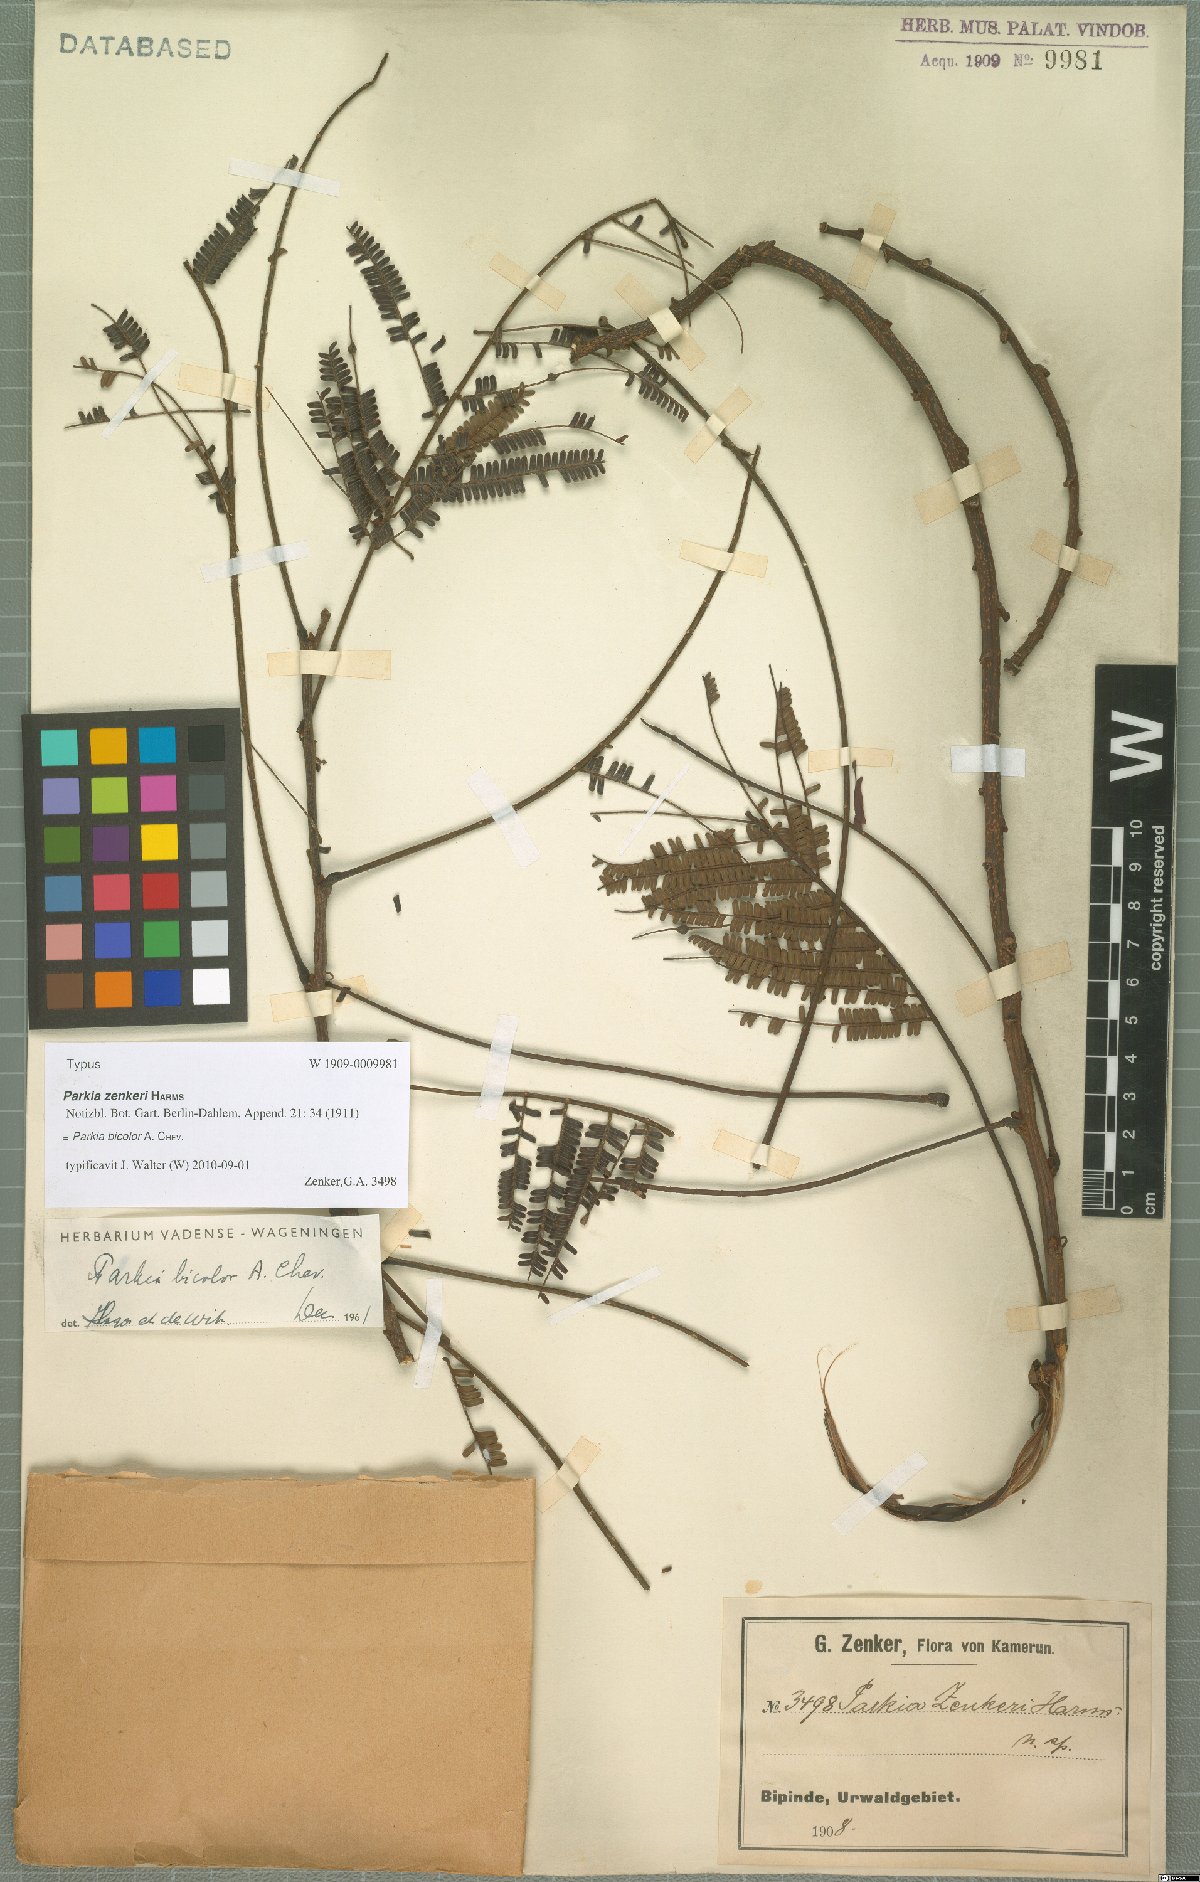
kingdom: Plantae
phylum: Tracheophyta
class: Magnoliopsida
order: Fabales
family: Fabaceae
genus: Parkia
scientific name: Parkia bicolor
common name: African locust-bean
